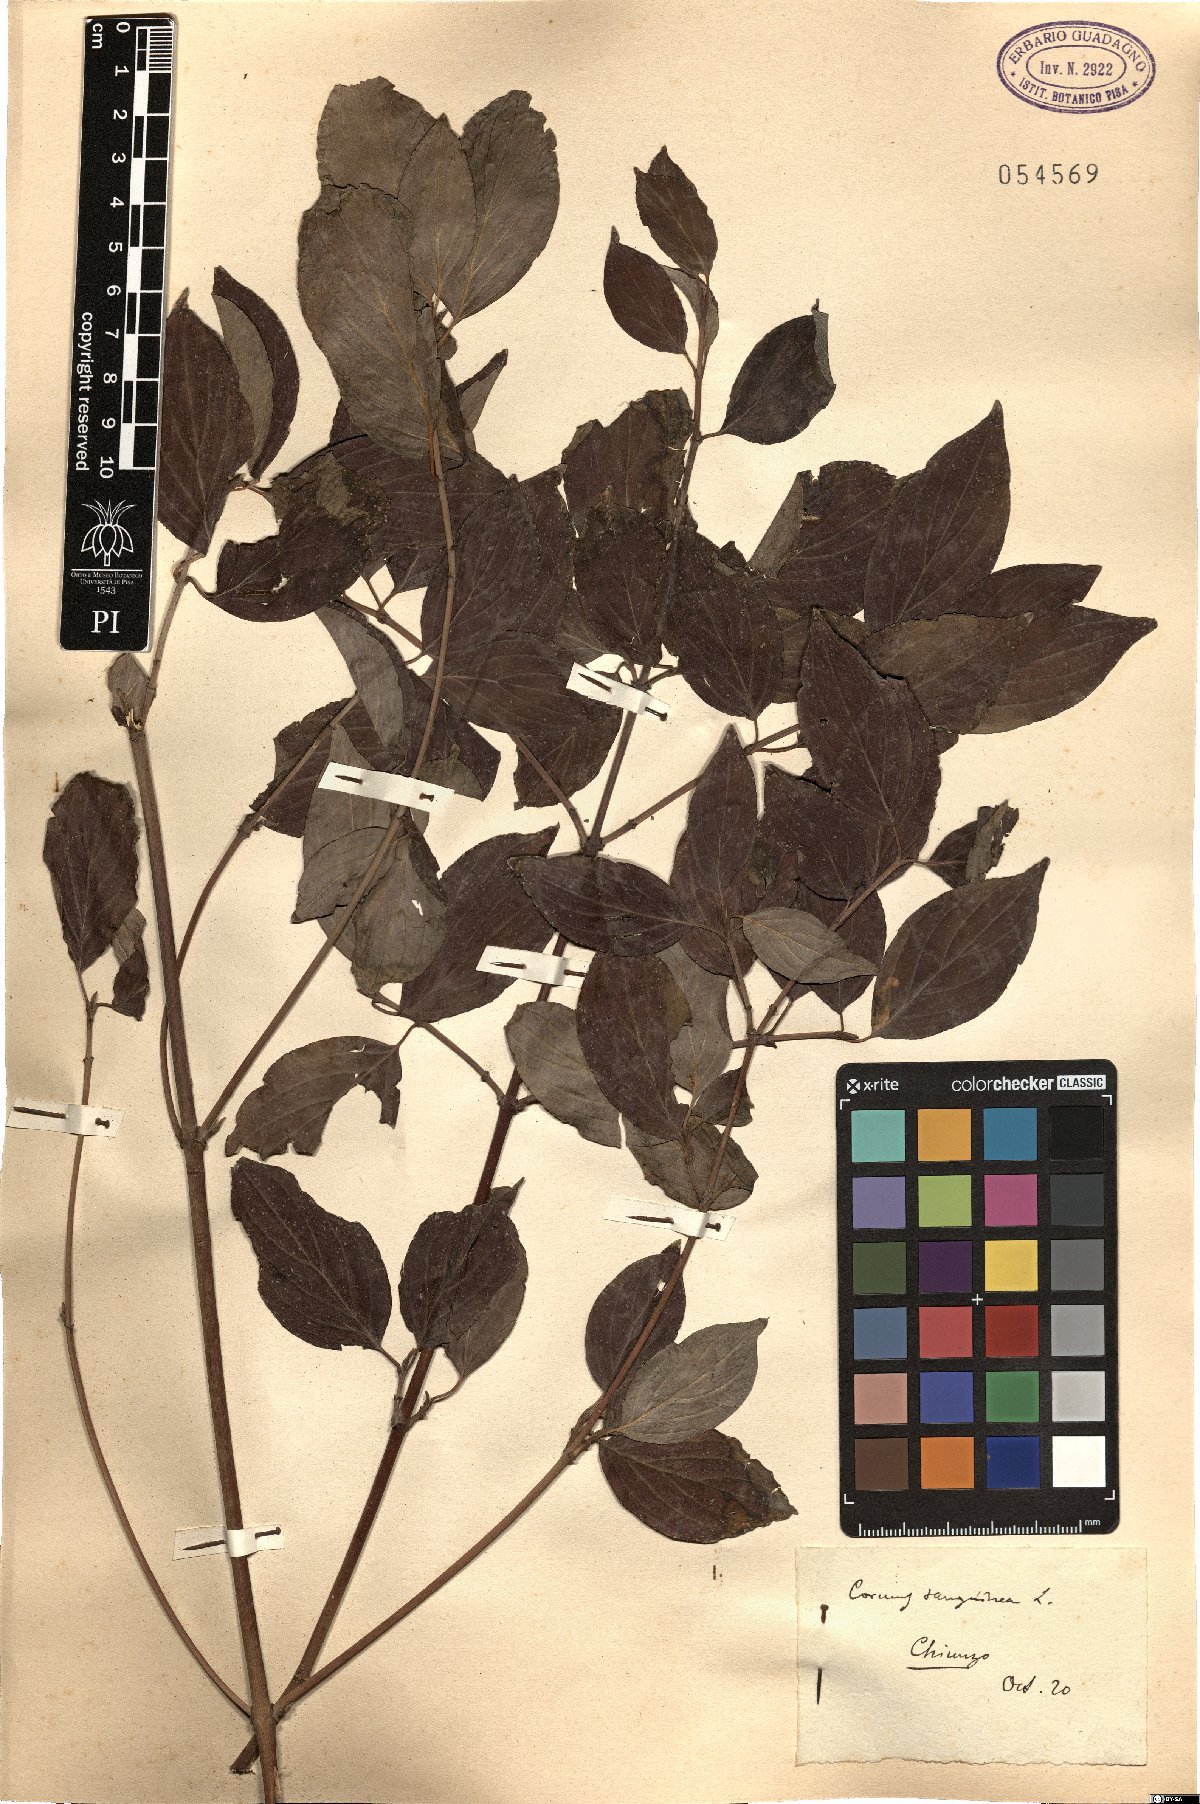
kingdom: Plantae
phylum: Tracheophyta
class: Magnoliopsida
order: Cornales
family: Cornaceae
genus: Cornus
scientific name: Cornus sanguinea
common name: Dogwood
